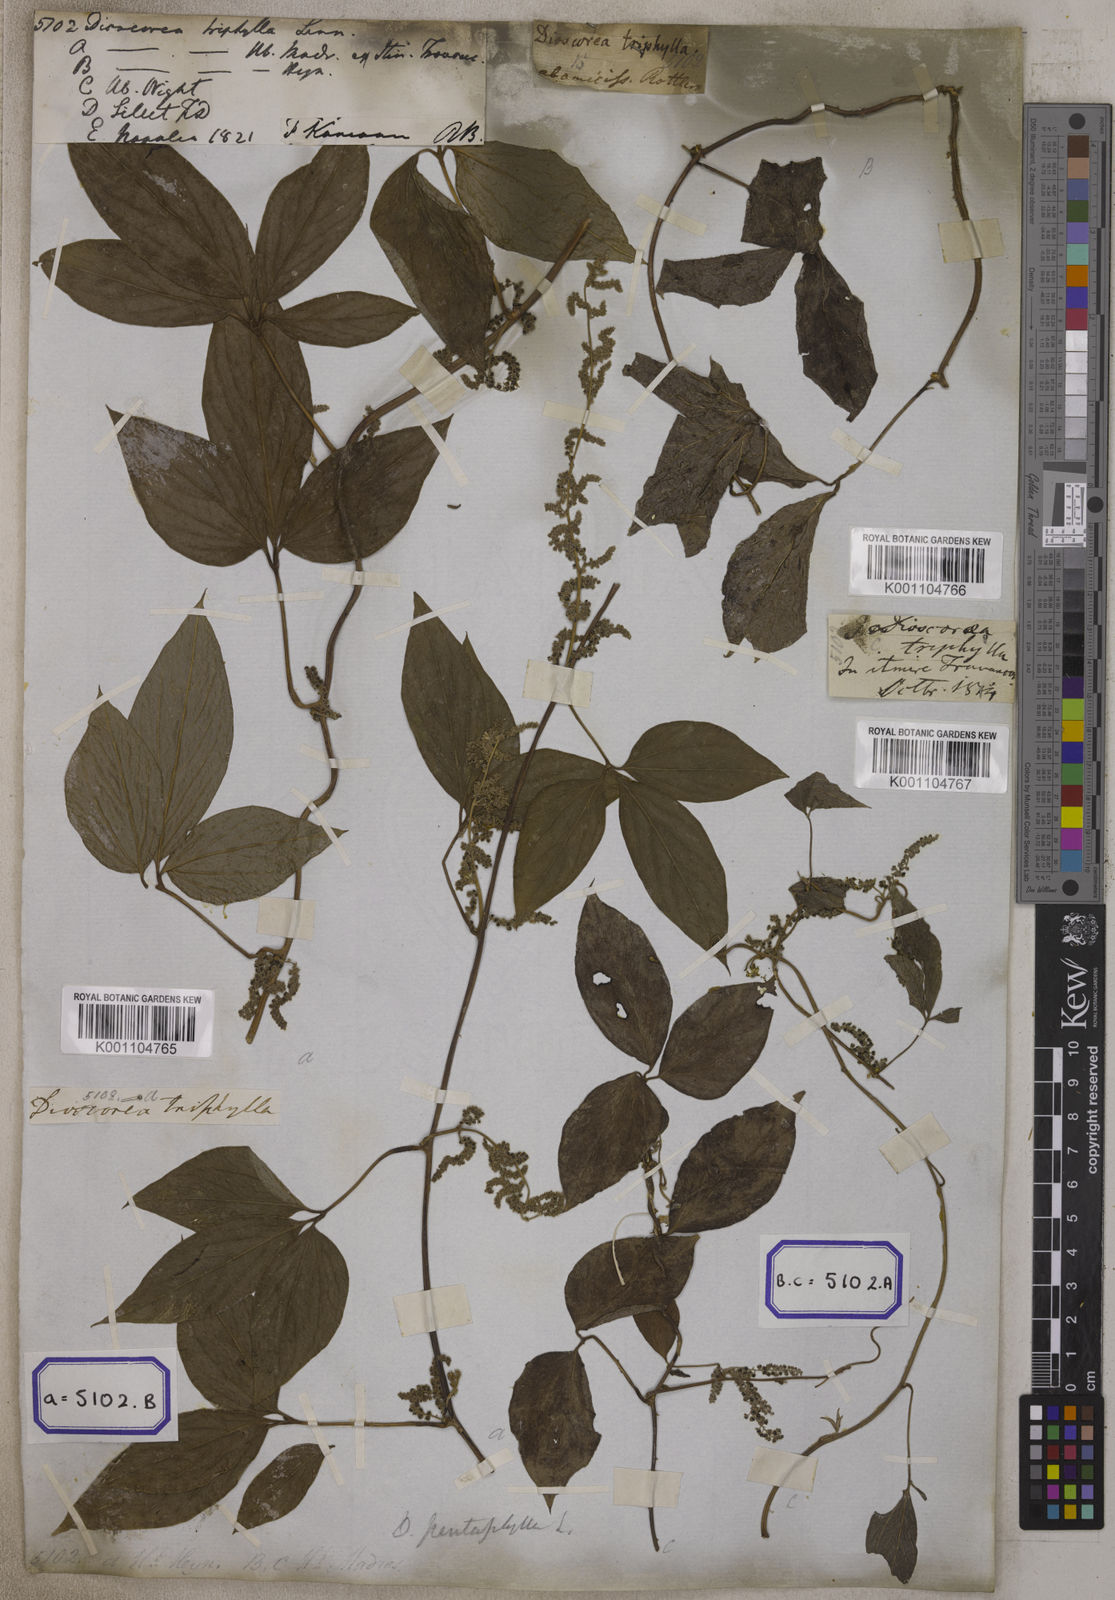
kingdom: Plantae
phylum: Tracheophyta
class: Liliopsida
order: Dioscoreales
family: Dioscoreaceae
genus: Dioscorea
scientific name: Dioscorea pentaphylla
